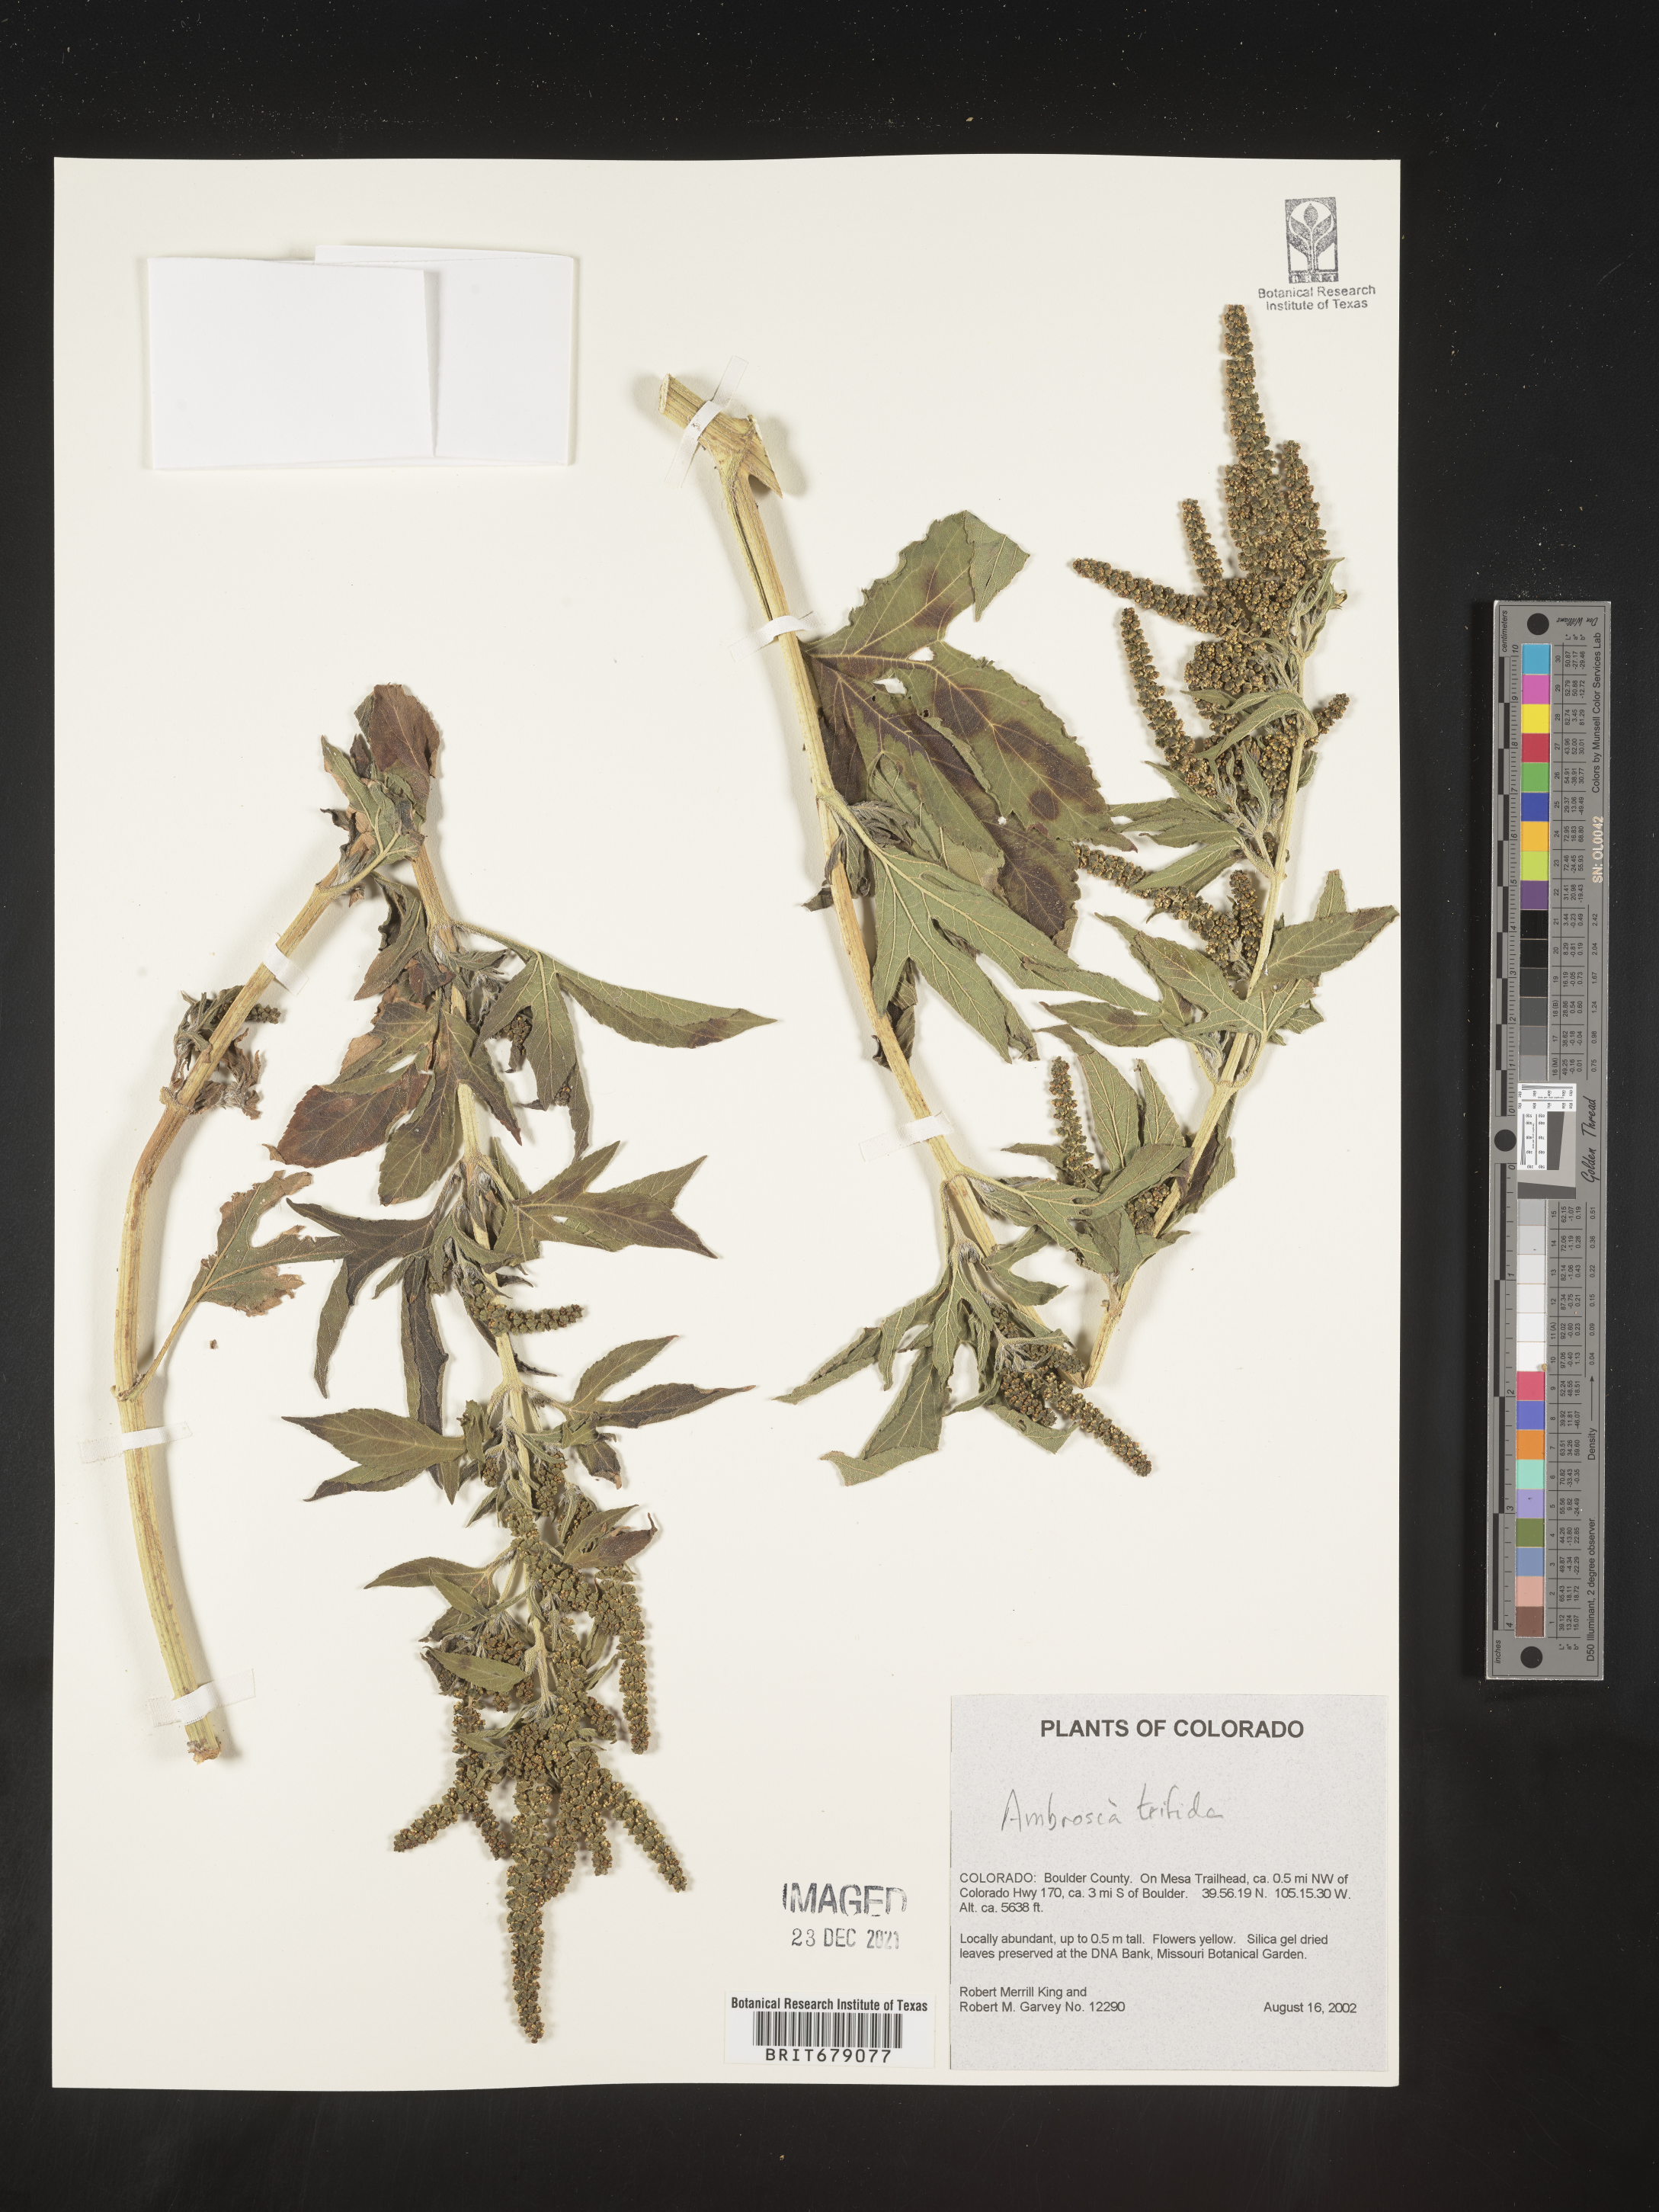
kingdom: Plantae
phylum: Tracheophyta
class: Magnoliopsida
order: Asterales
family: Asteraceae
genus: Ambrosia
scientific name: Ambrosia trifida
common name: Giant ragweed
